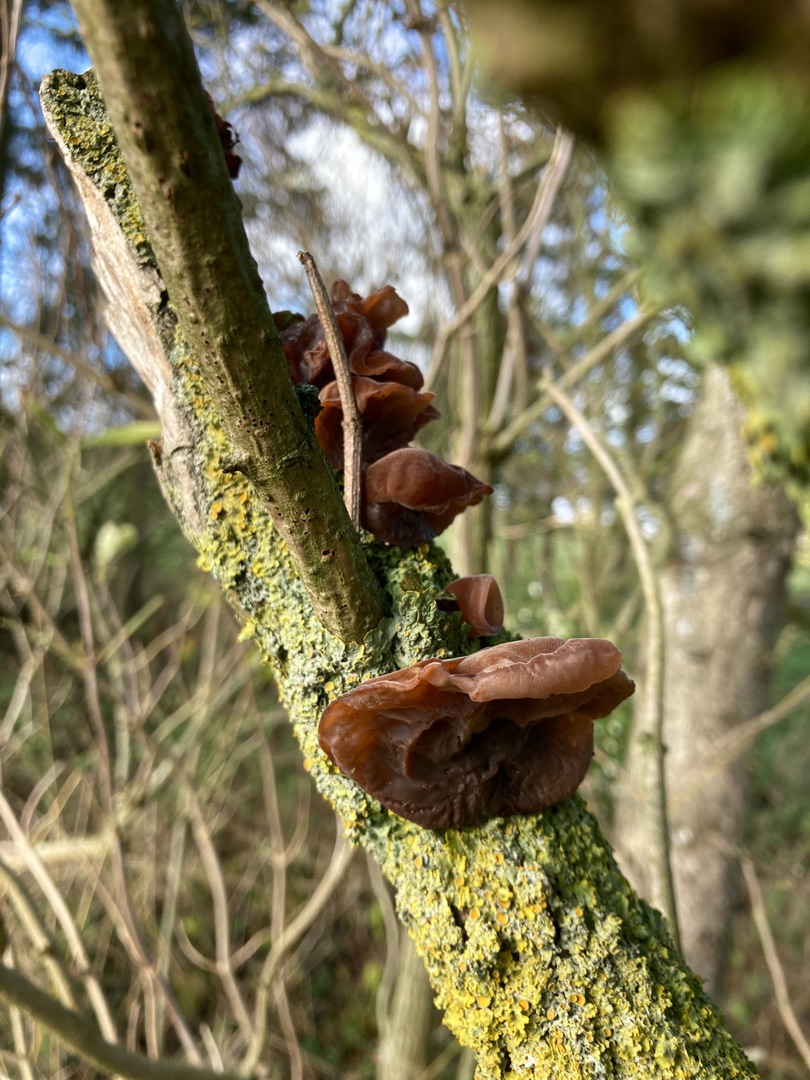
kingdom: Fungi
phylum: Basidiomycota
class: Agaricomycetes
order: Auriculariales
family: Auriculariaceae
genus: Auricularia
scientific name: Auricularia auricula-judae
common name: Almindelig judasøre
